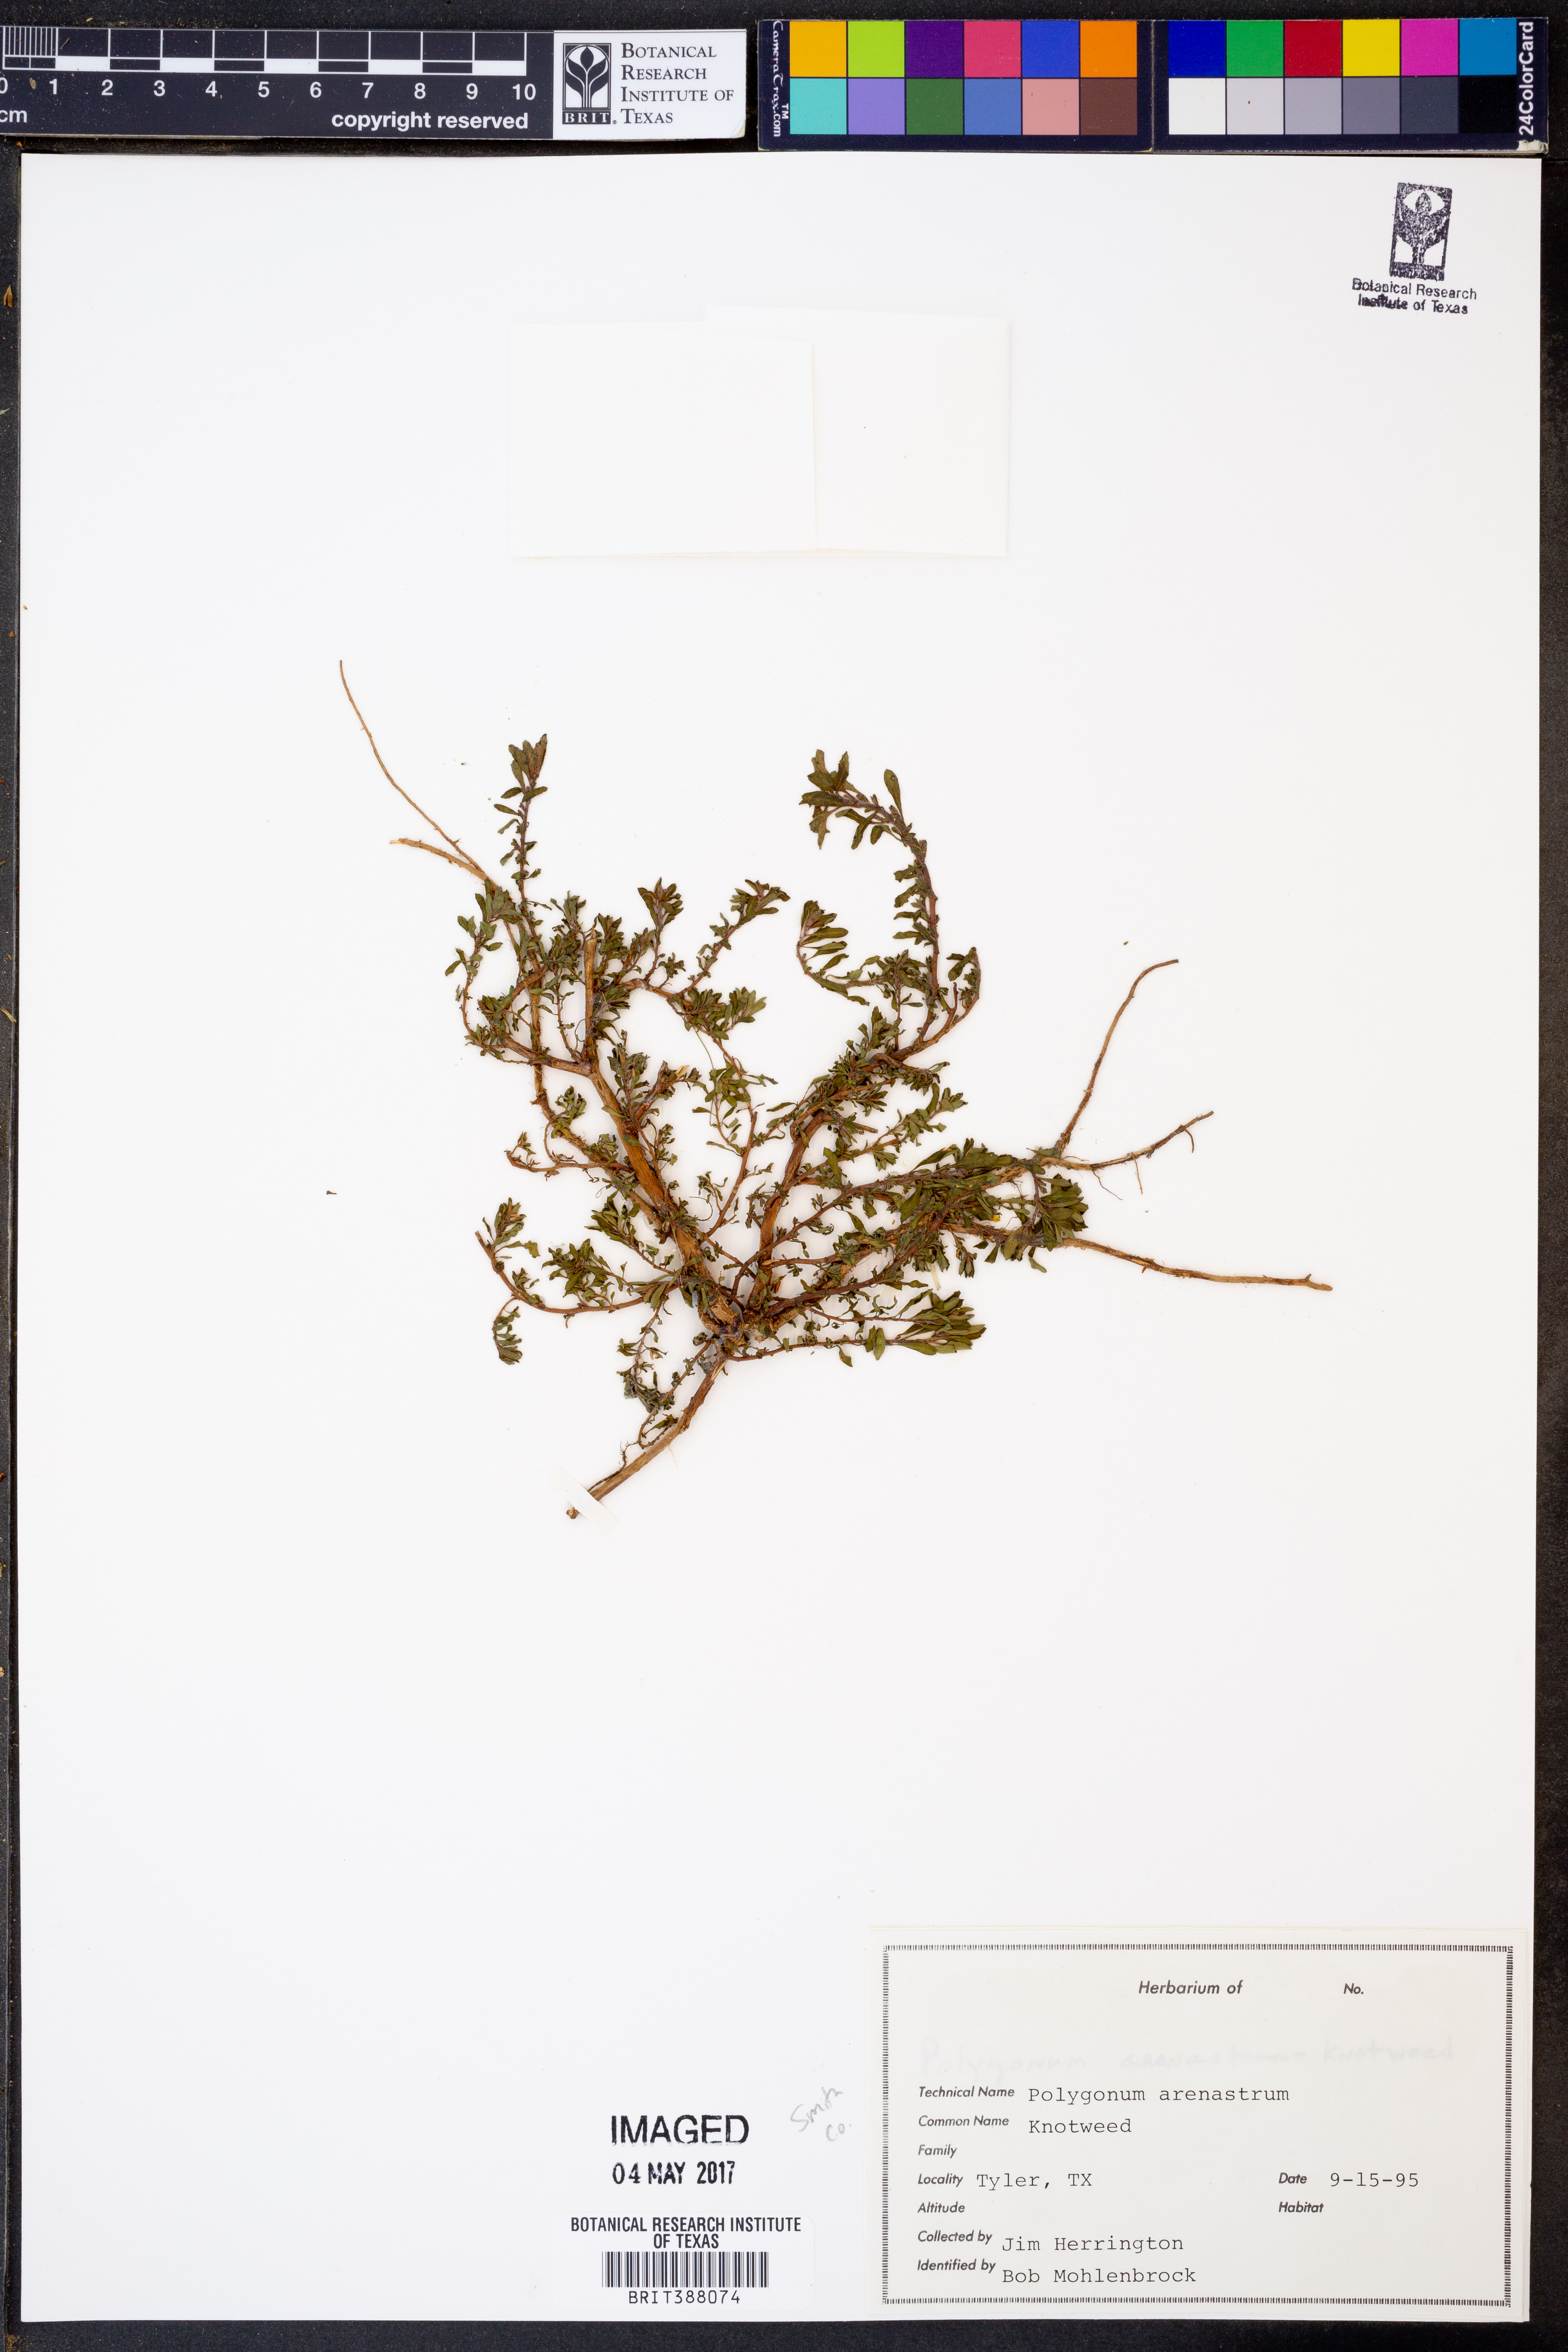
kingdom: Plantae
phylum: Tracheophyta
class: Magnoliopsida
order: Caryophyllales
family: Polygonaceae
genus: Polygonum
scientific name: Polygonum arenastrum
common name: Equal-leaved knotgrass
